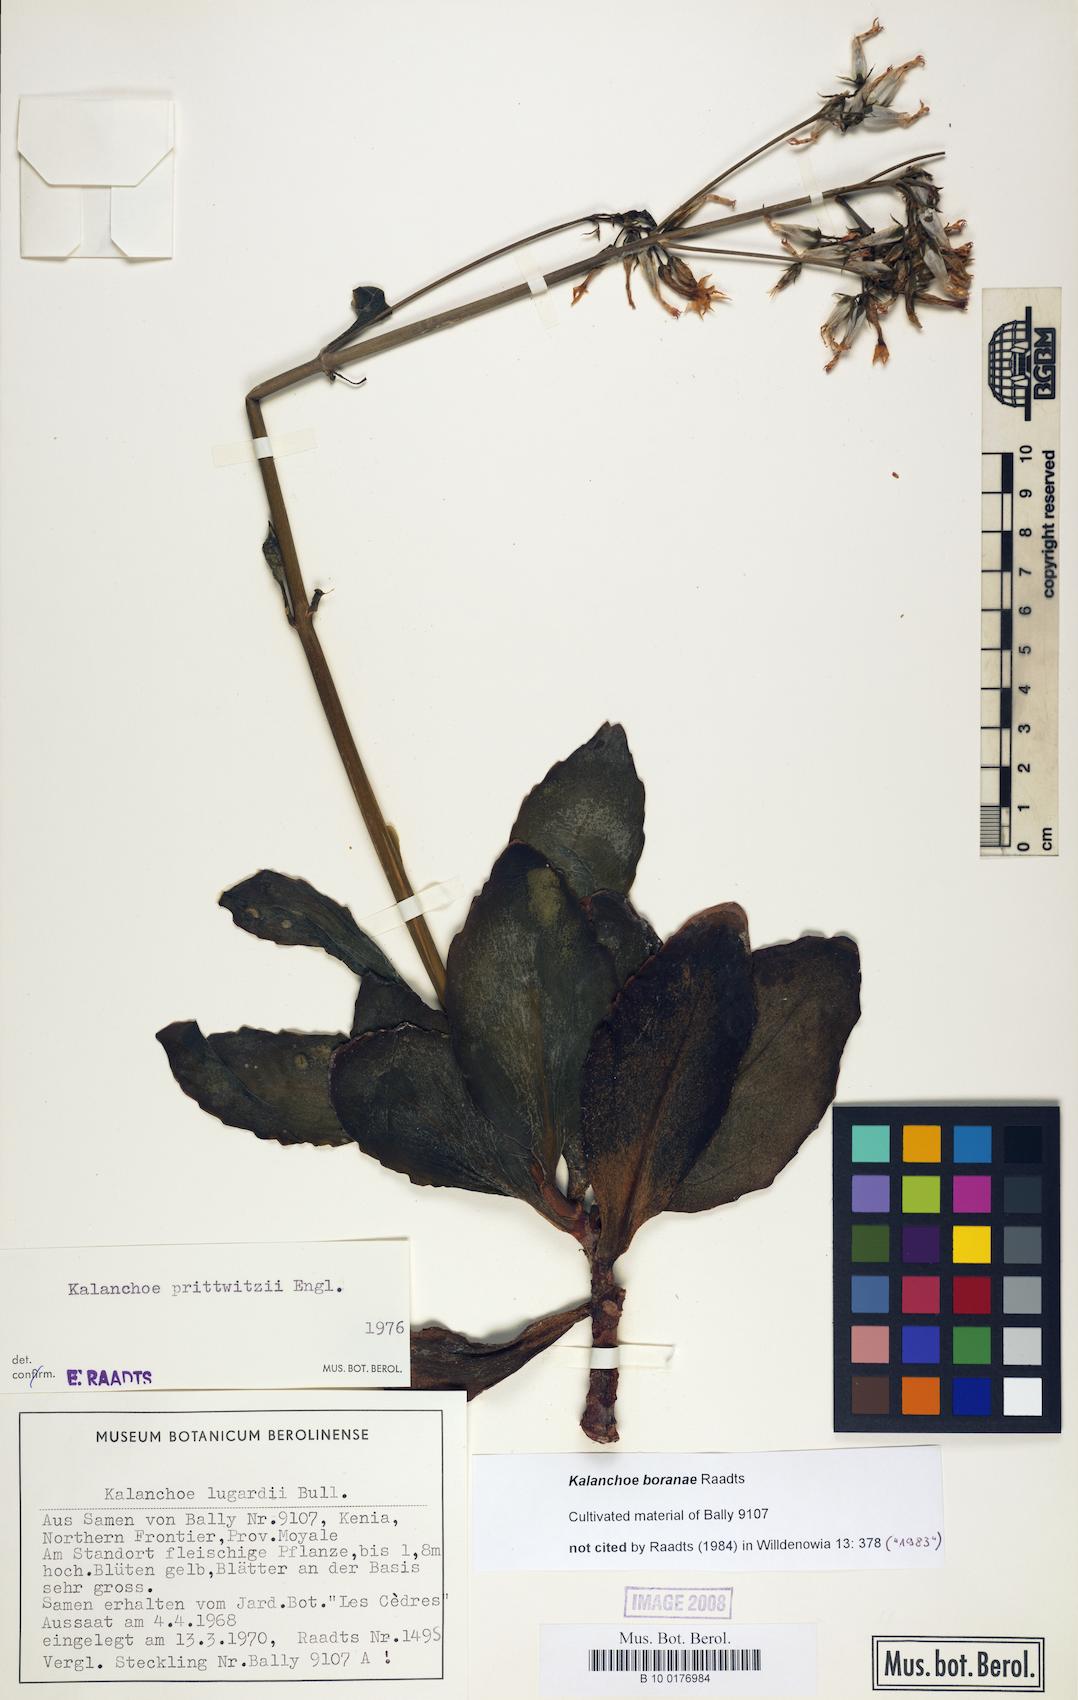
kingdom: Plantae
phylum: Tracheophyta
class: Magnoliopsida
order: Saxifragales
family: Crassulaceae
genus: Kalanchoe
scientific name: Kalanchoe boranae
